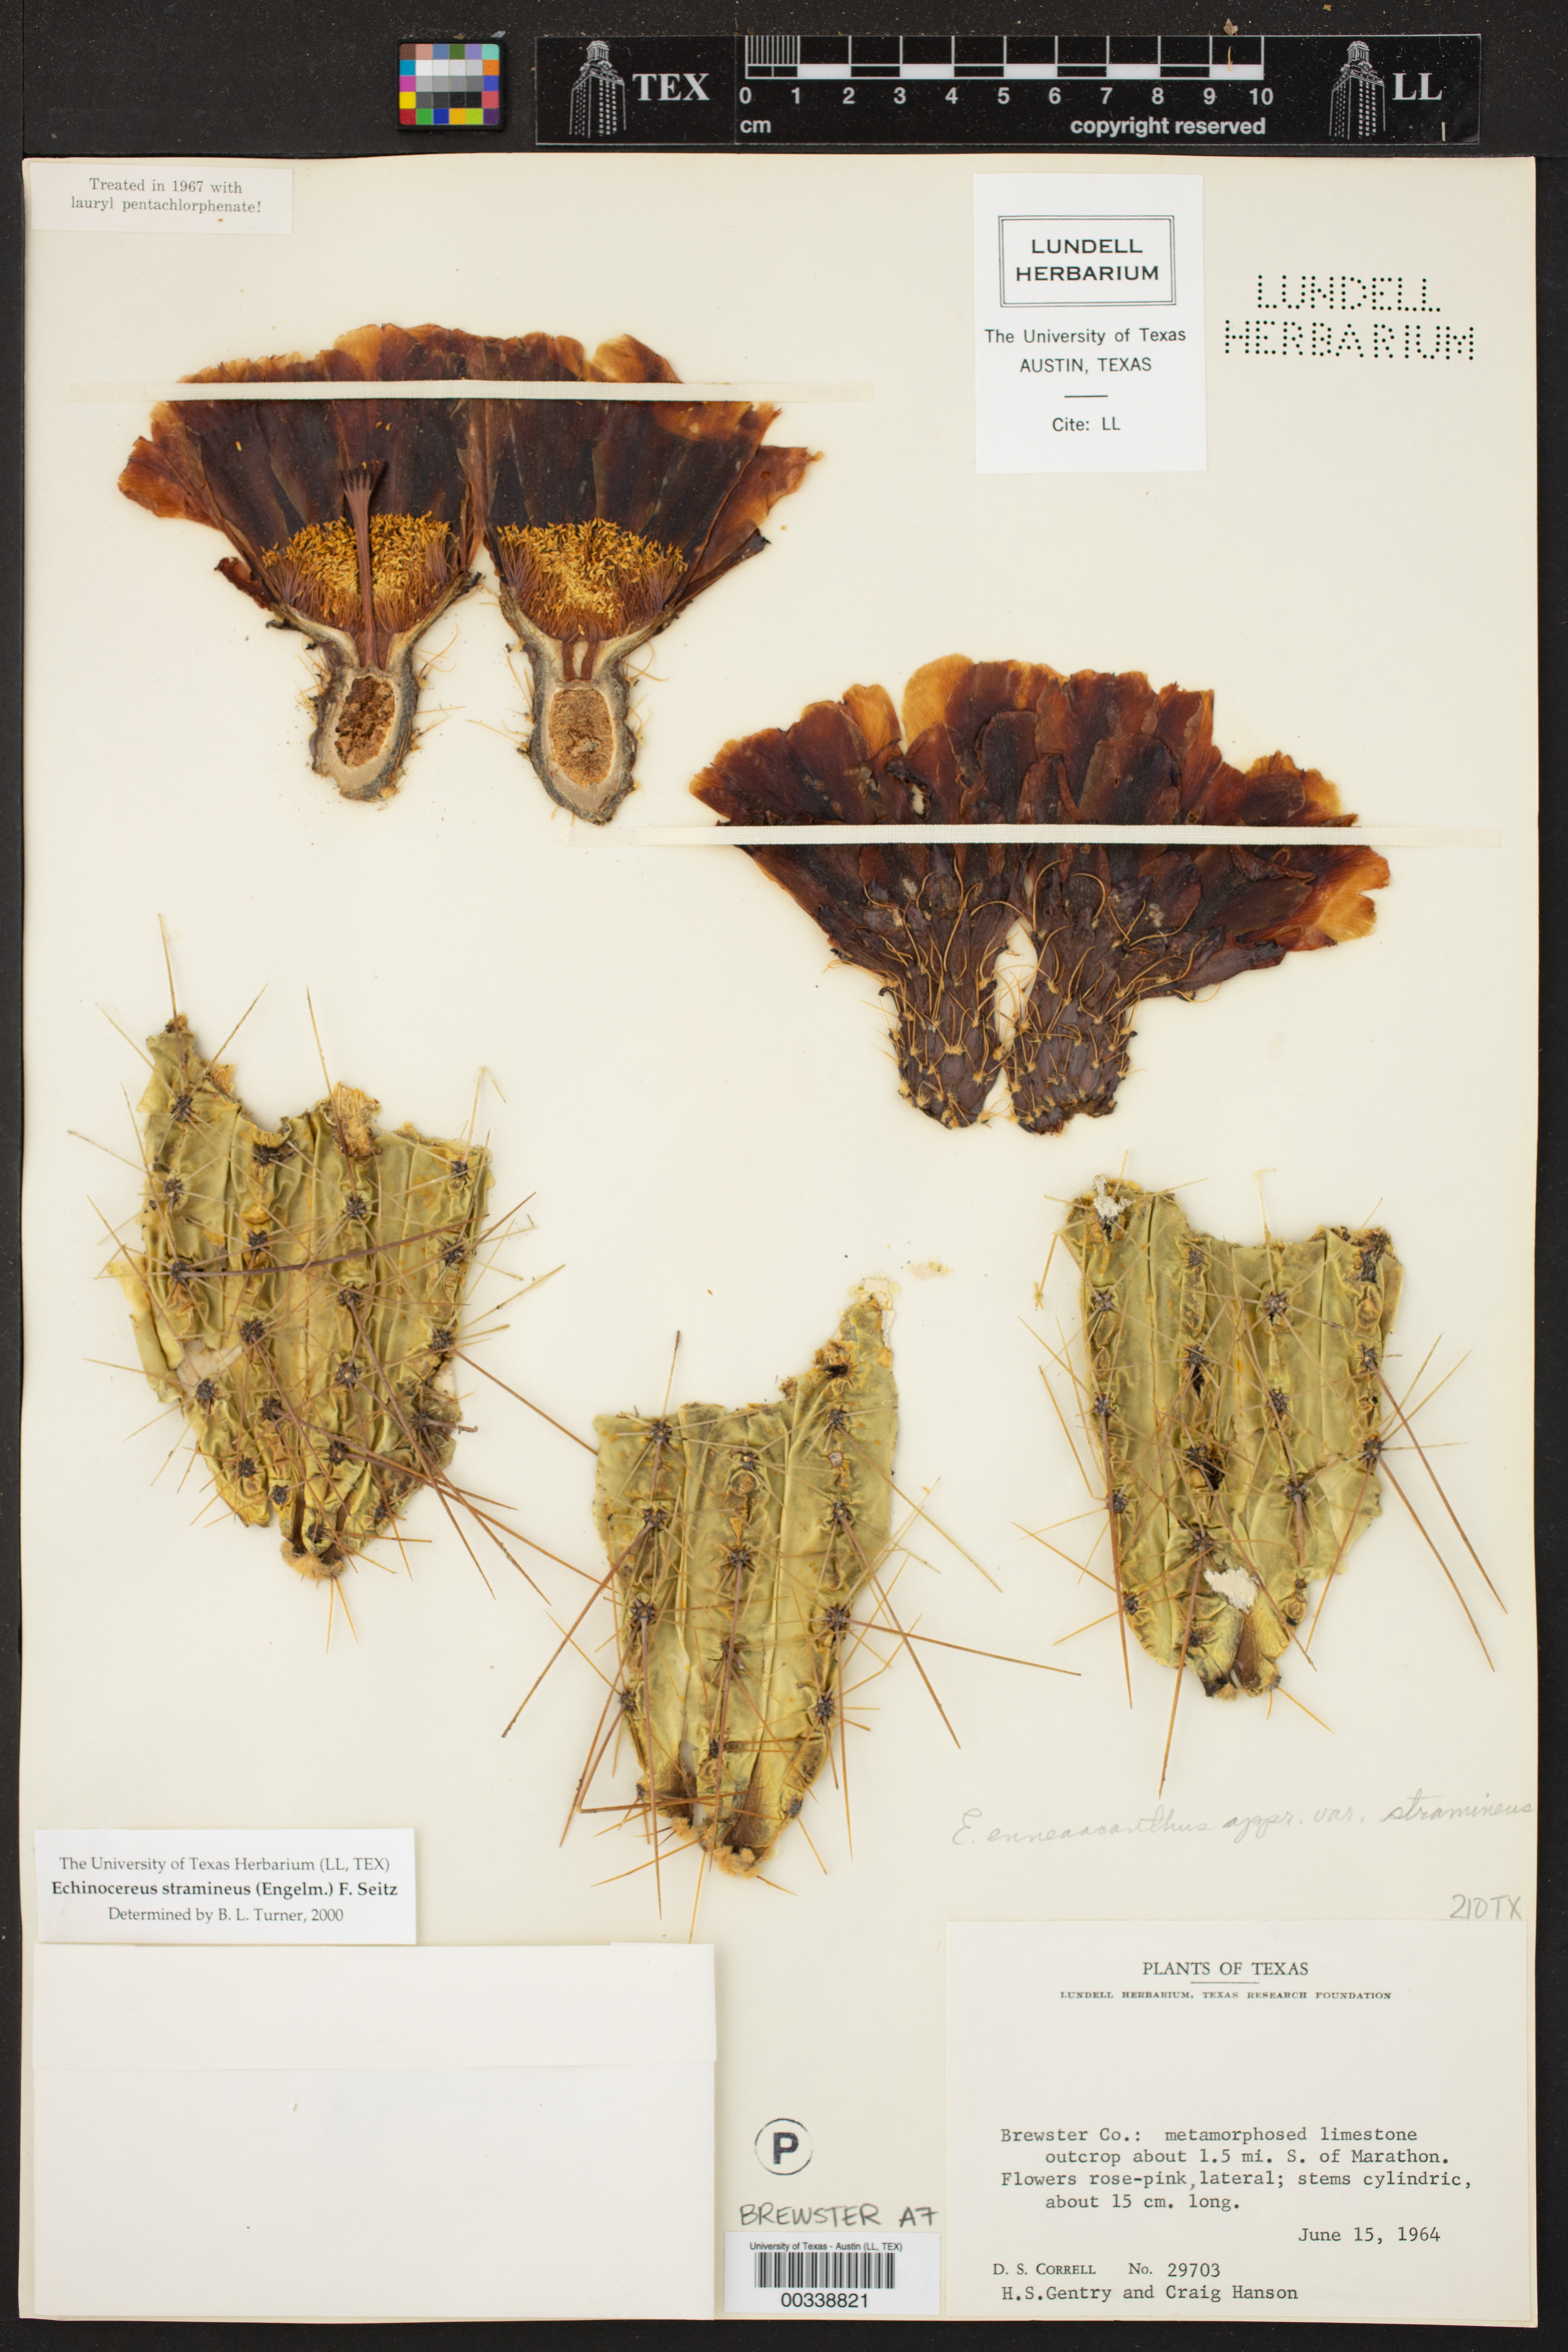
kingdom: Plantae
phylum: Tracheophyta
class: Magnoliopsida
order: Caryophyllales
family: Cactaceae
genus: Echinocereus
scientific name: Echinocereus stramineus
